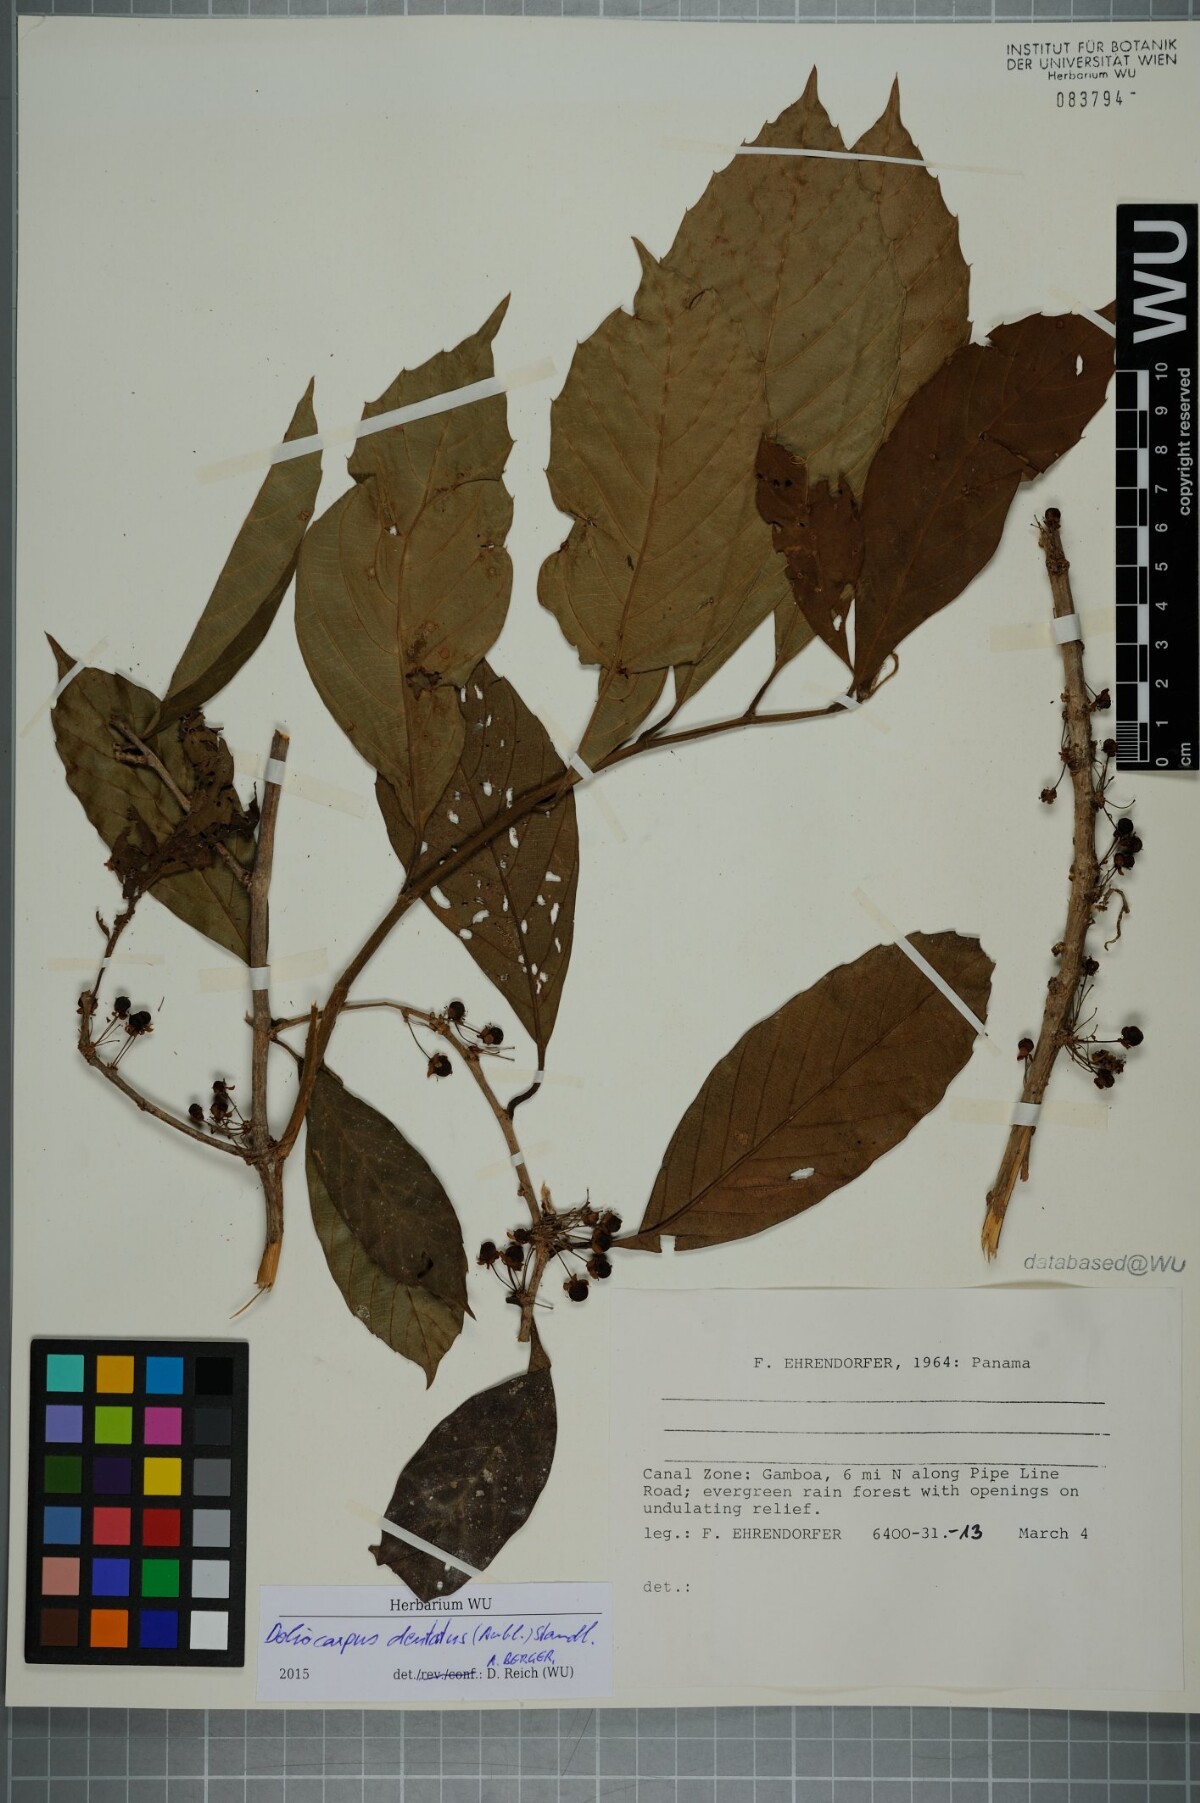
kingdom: Plantae
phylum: Tracheophyta
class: Magnoliopsida
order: Dilleniales
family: Dilleniaceae
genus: Doliocarpus
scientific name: Doliocarpus dentatus
